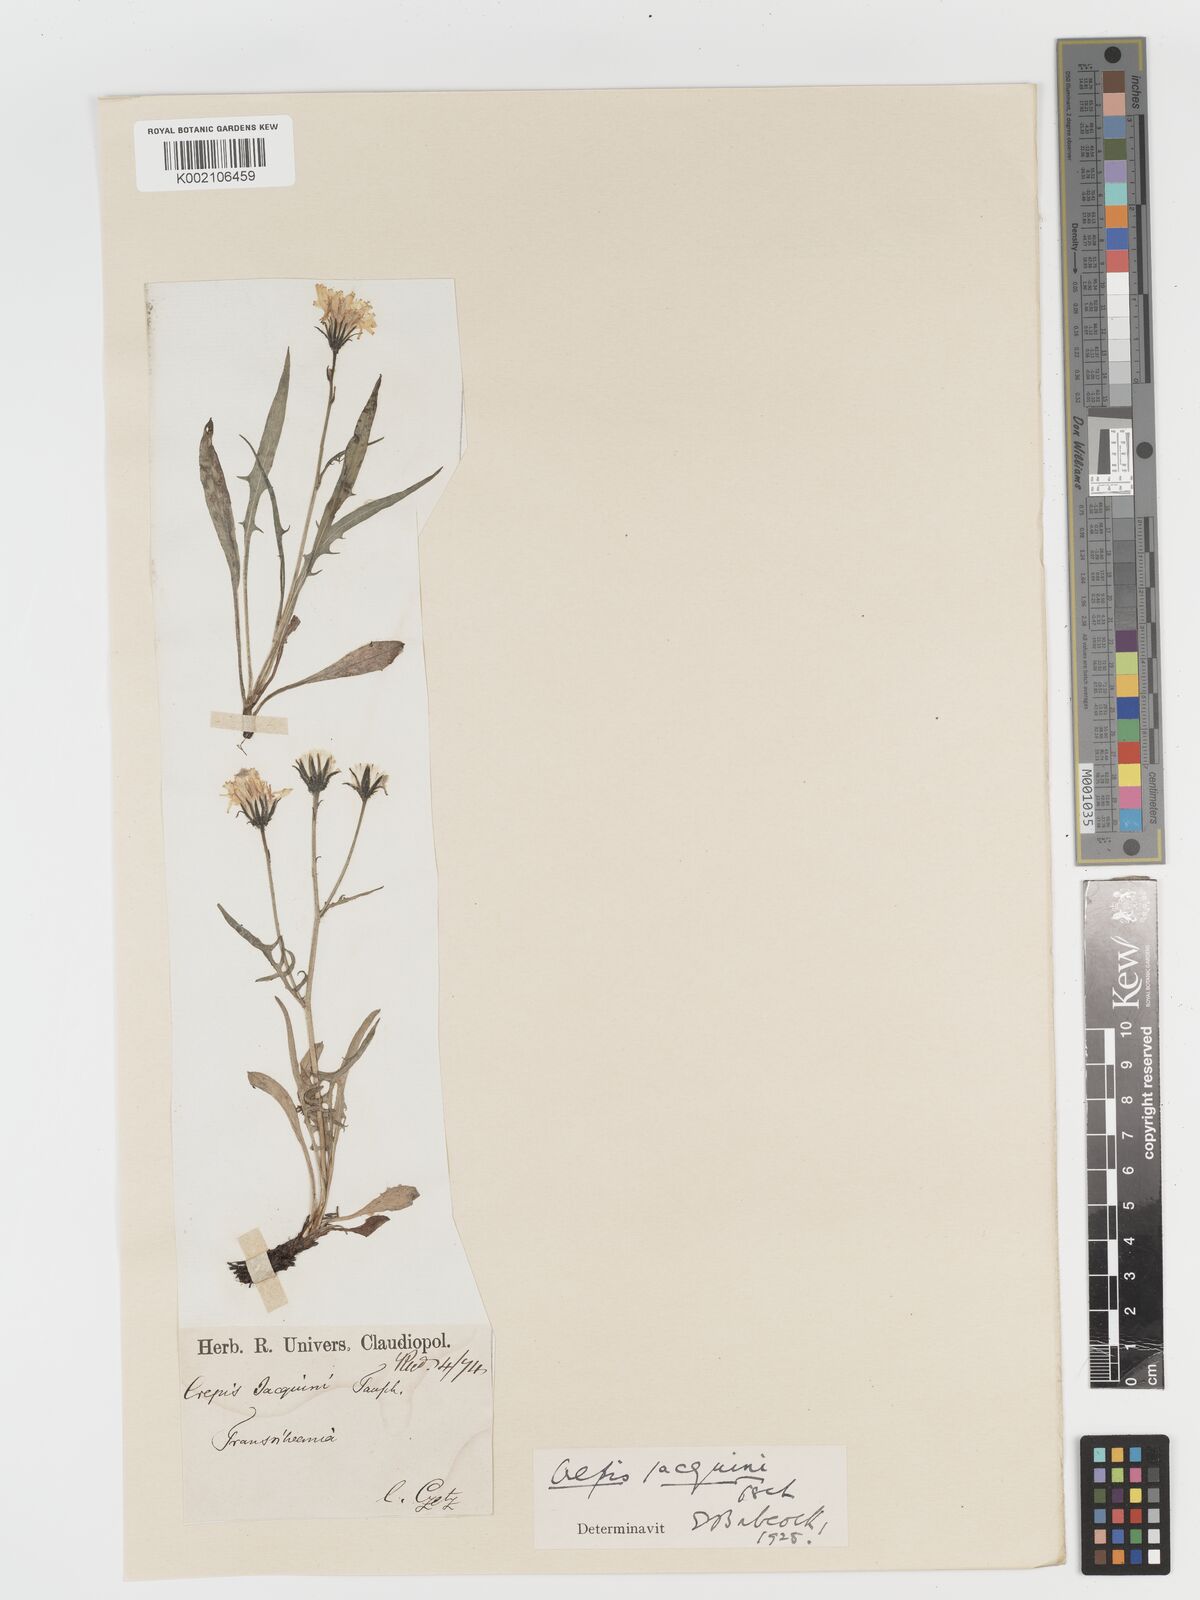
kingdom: Plantae
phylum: Tracheophyta
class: Magnoliopsida
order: Asterales
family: Asteraceae
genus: Crepis
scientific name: Crepis jacquinii
